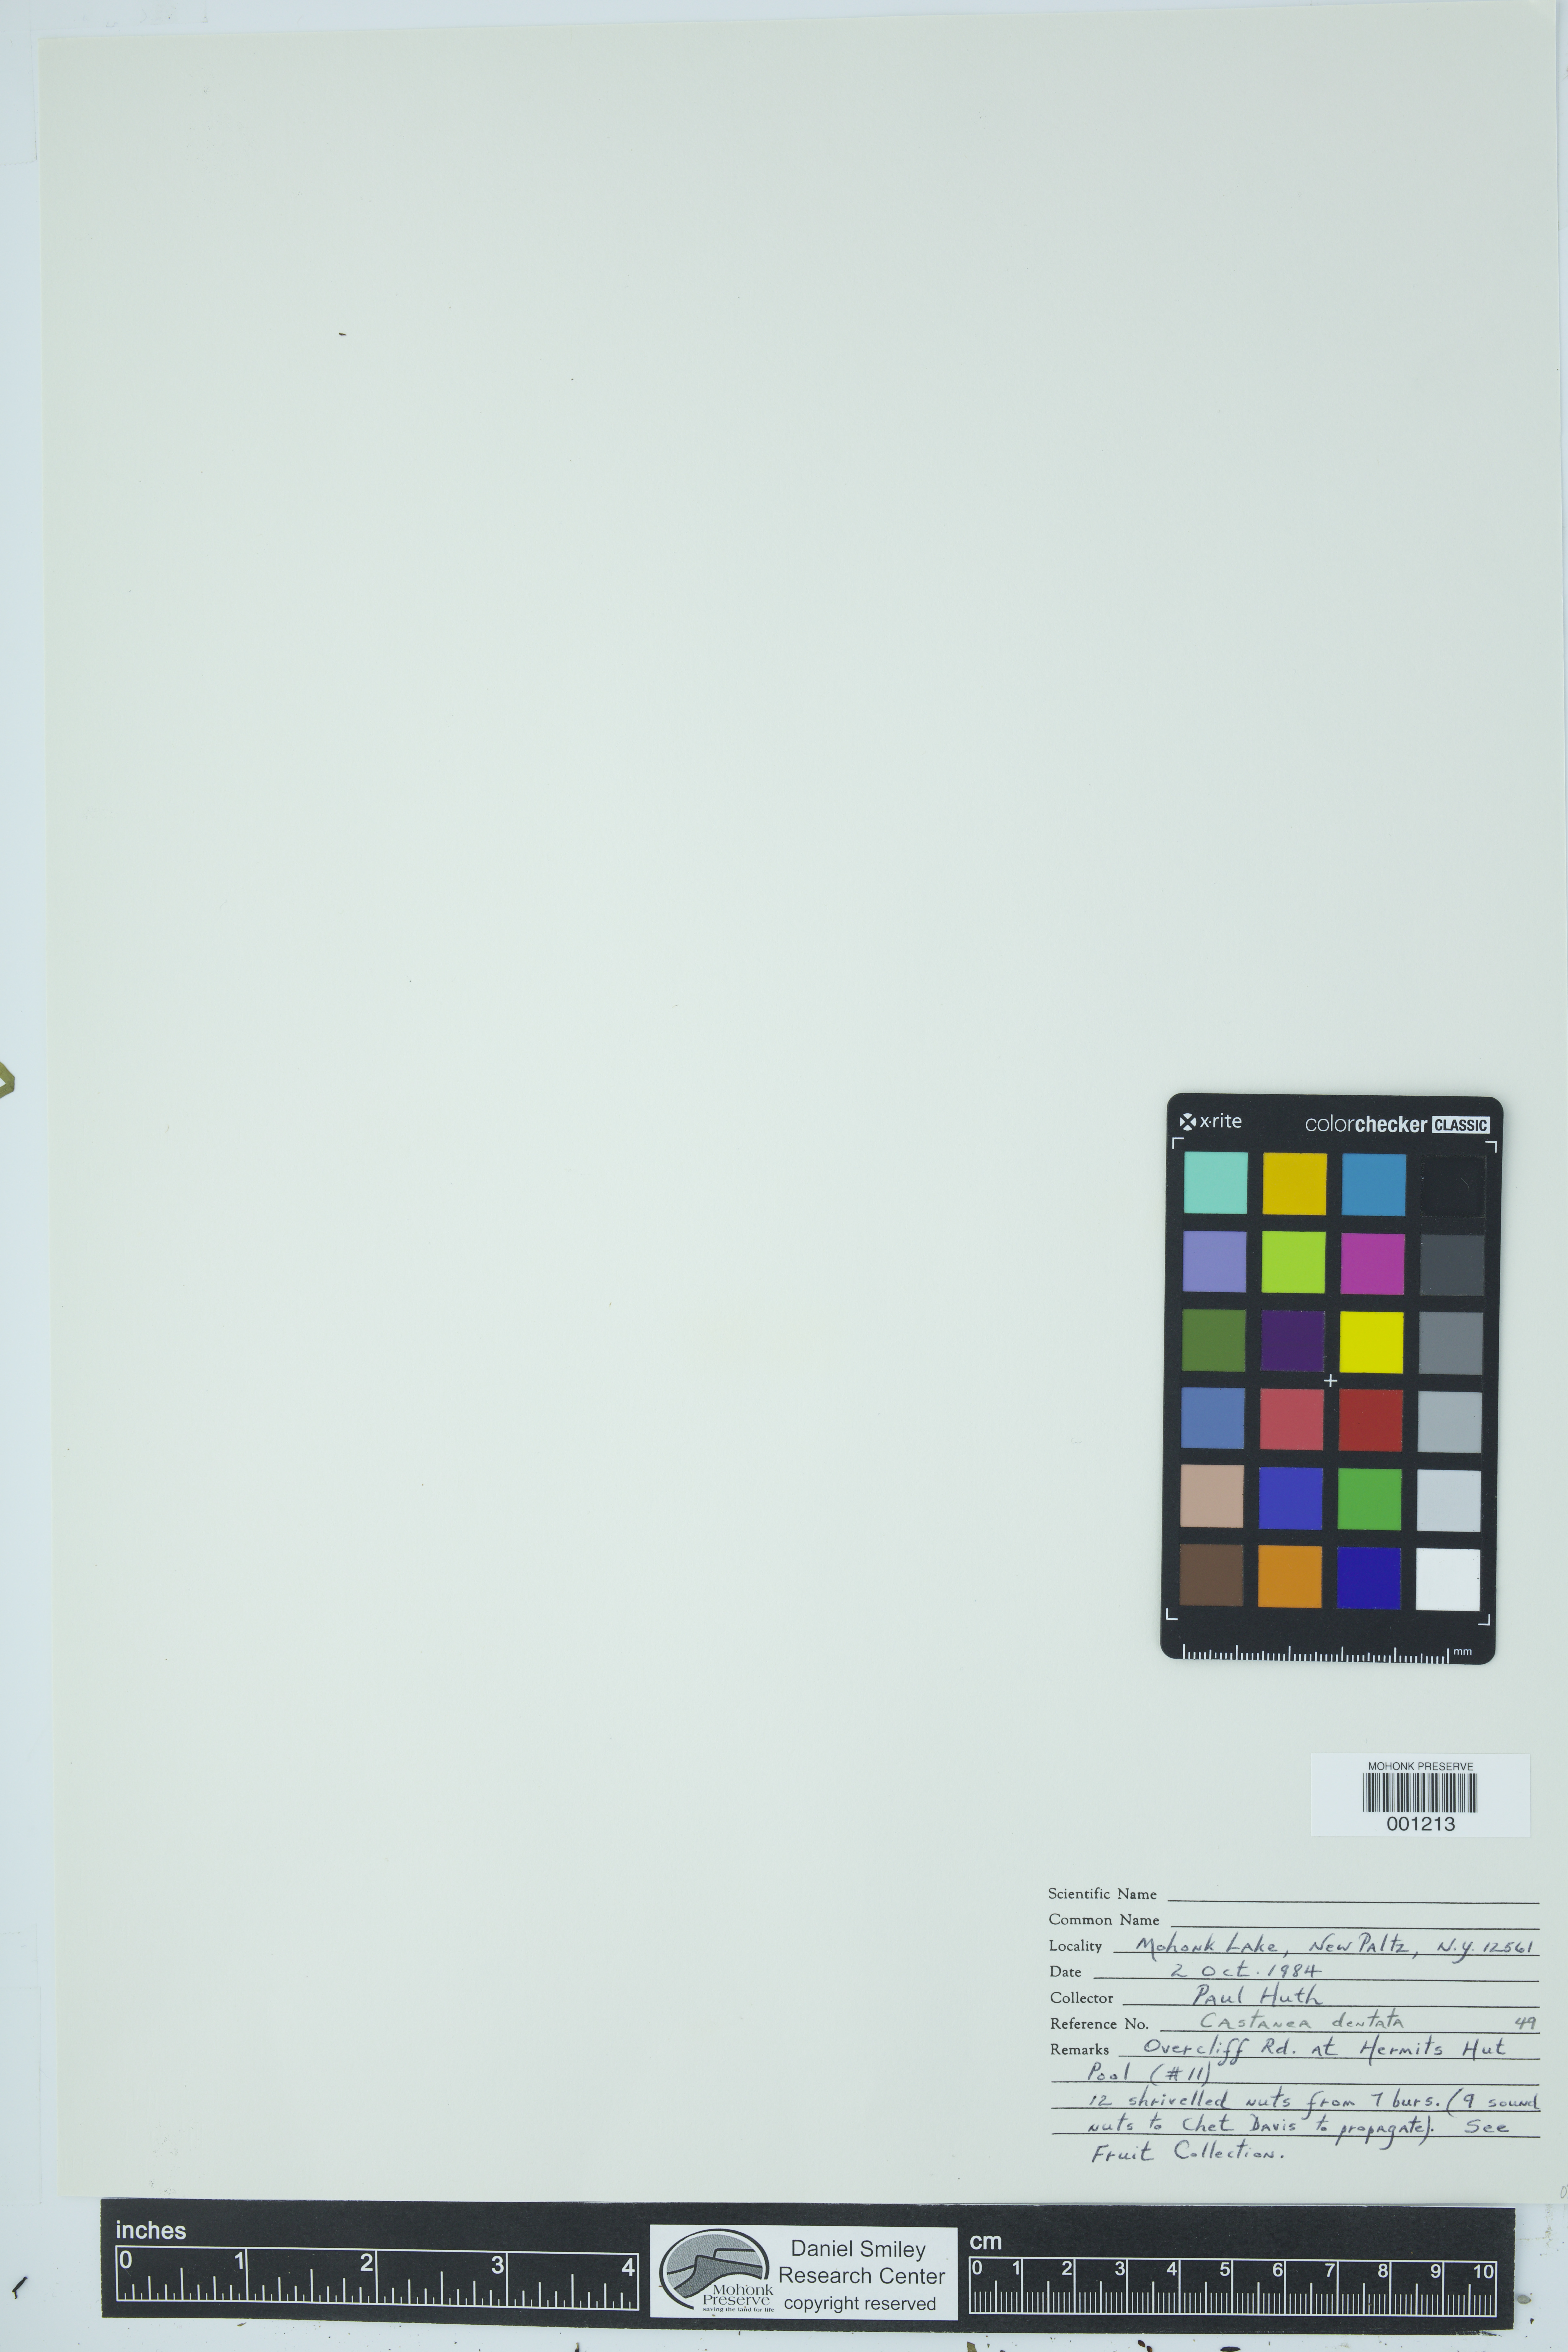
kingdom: Plantae
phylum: Tracheophyta
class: Magnoliopsida
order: Fagales
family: Fagaceae
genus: Castanea
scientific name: Castanea dentata
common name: American chestnut
